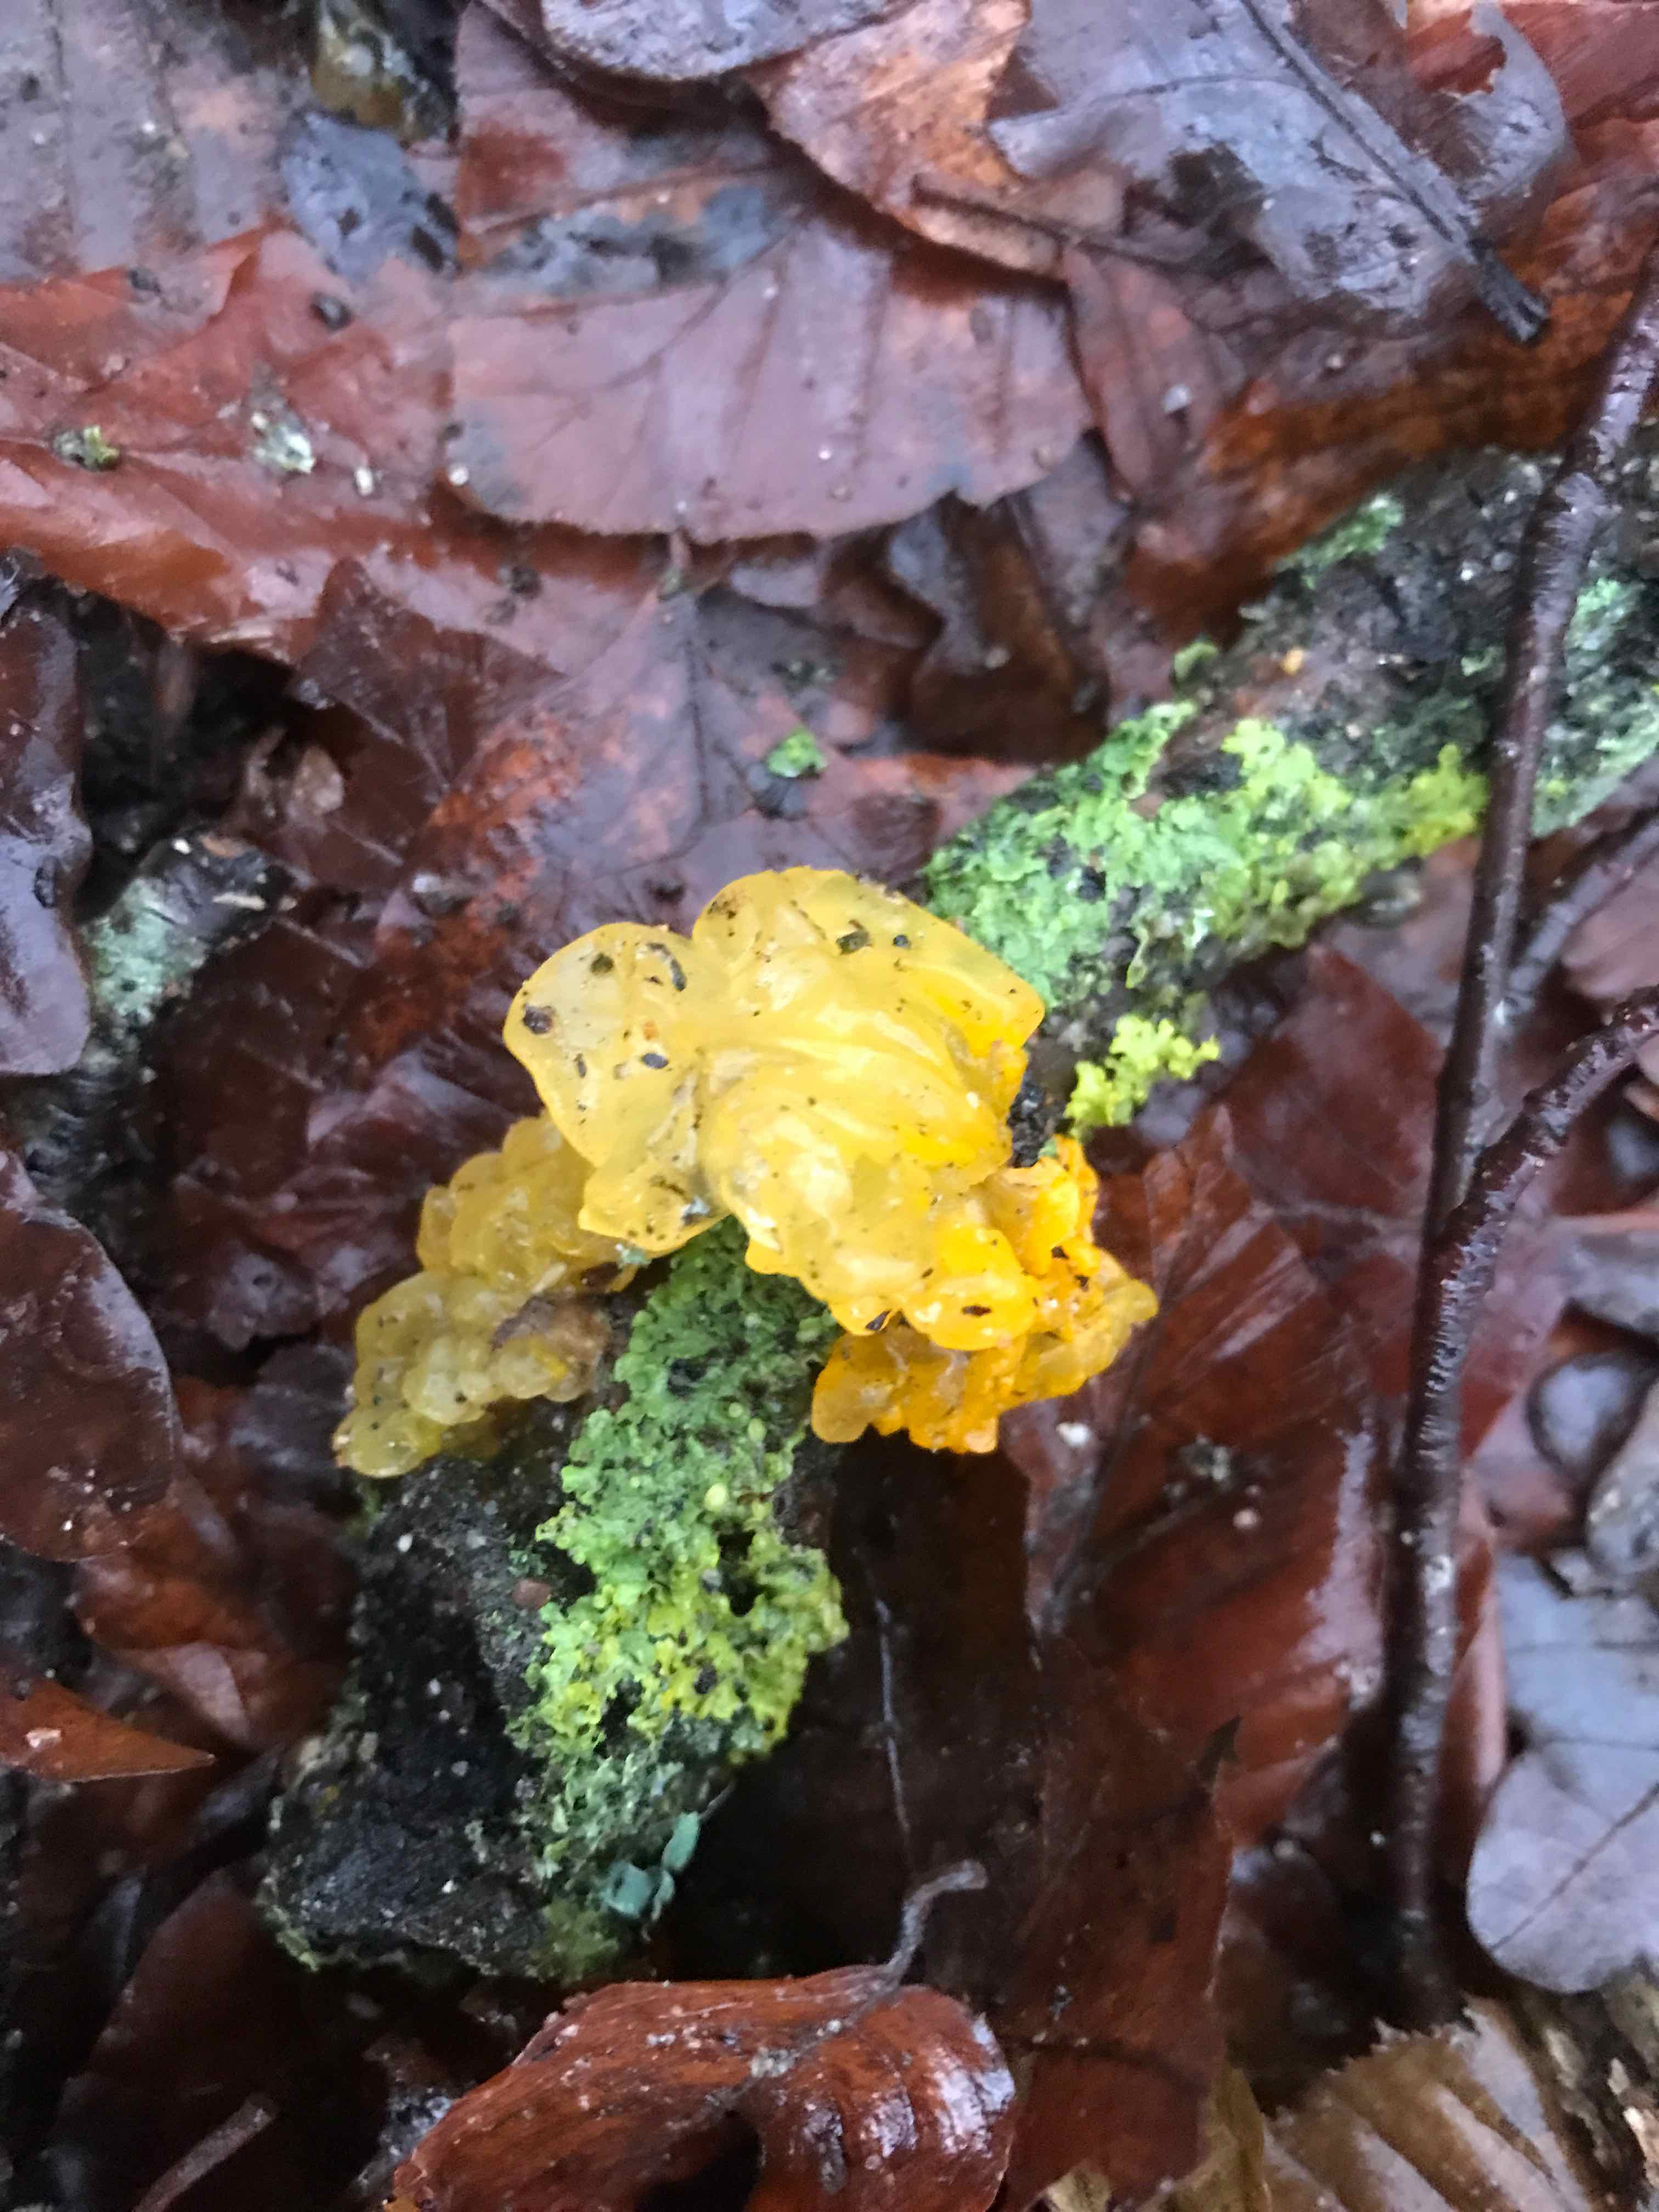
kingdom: Fungi
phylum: Basidiomycota
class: Tremellomycetes
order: Tremellales
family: Tremellaceae
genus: Tremella
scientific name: Tremella mesenterica
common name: gul bævresvamp
